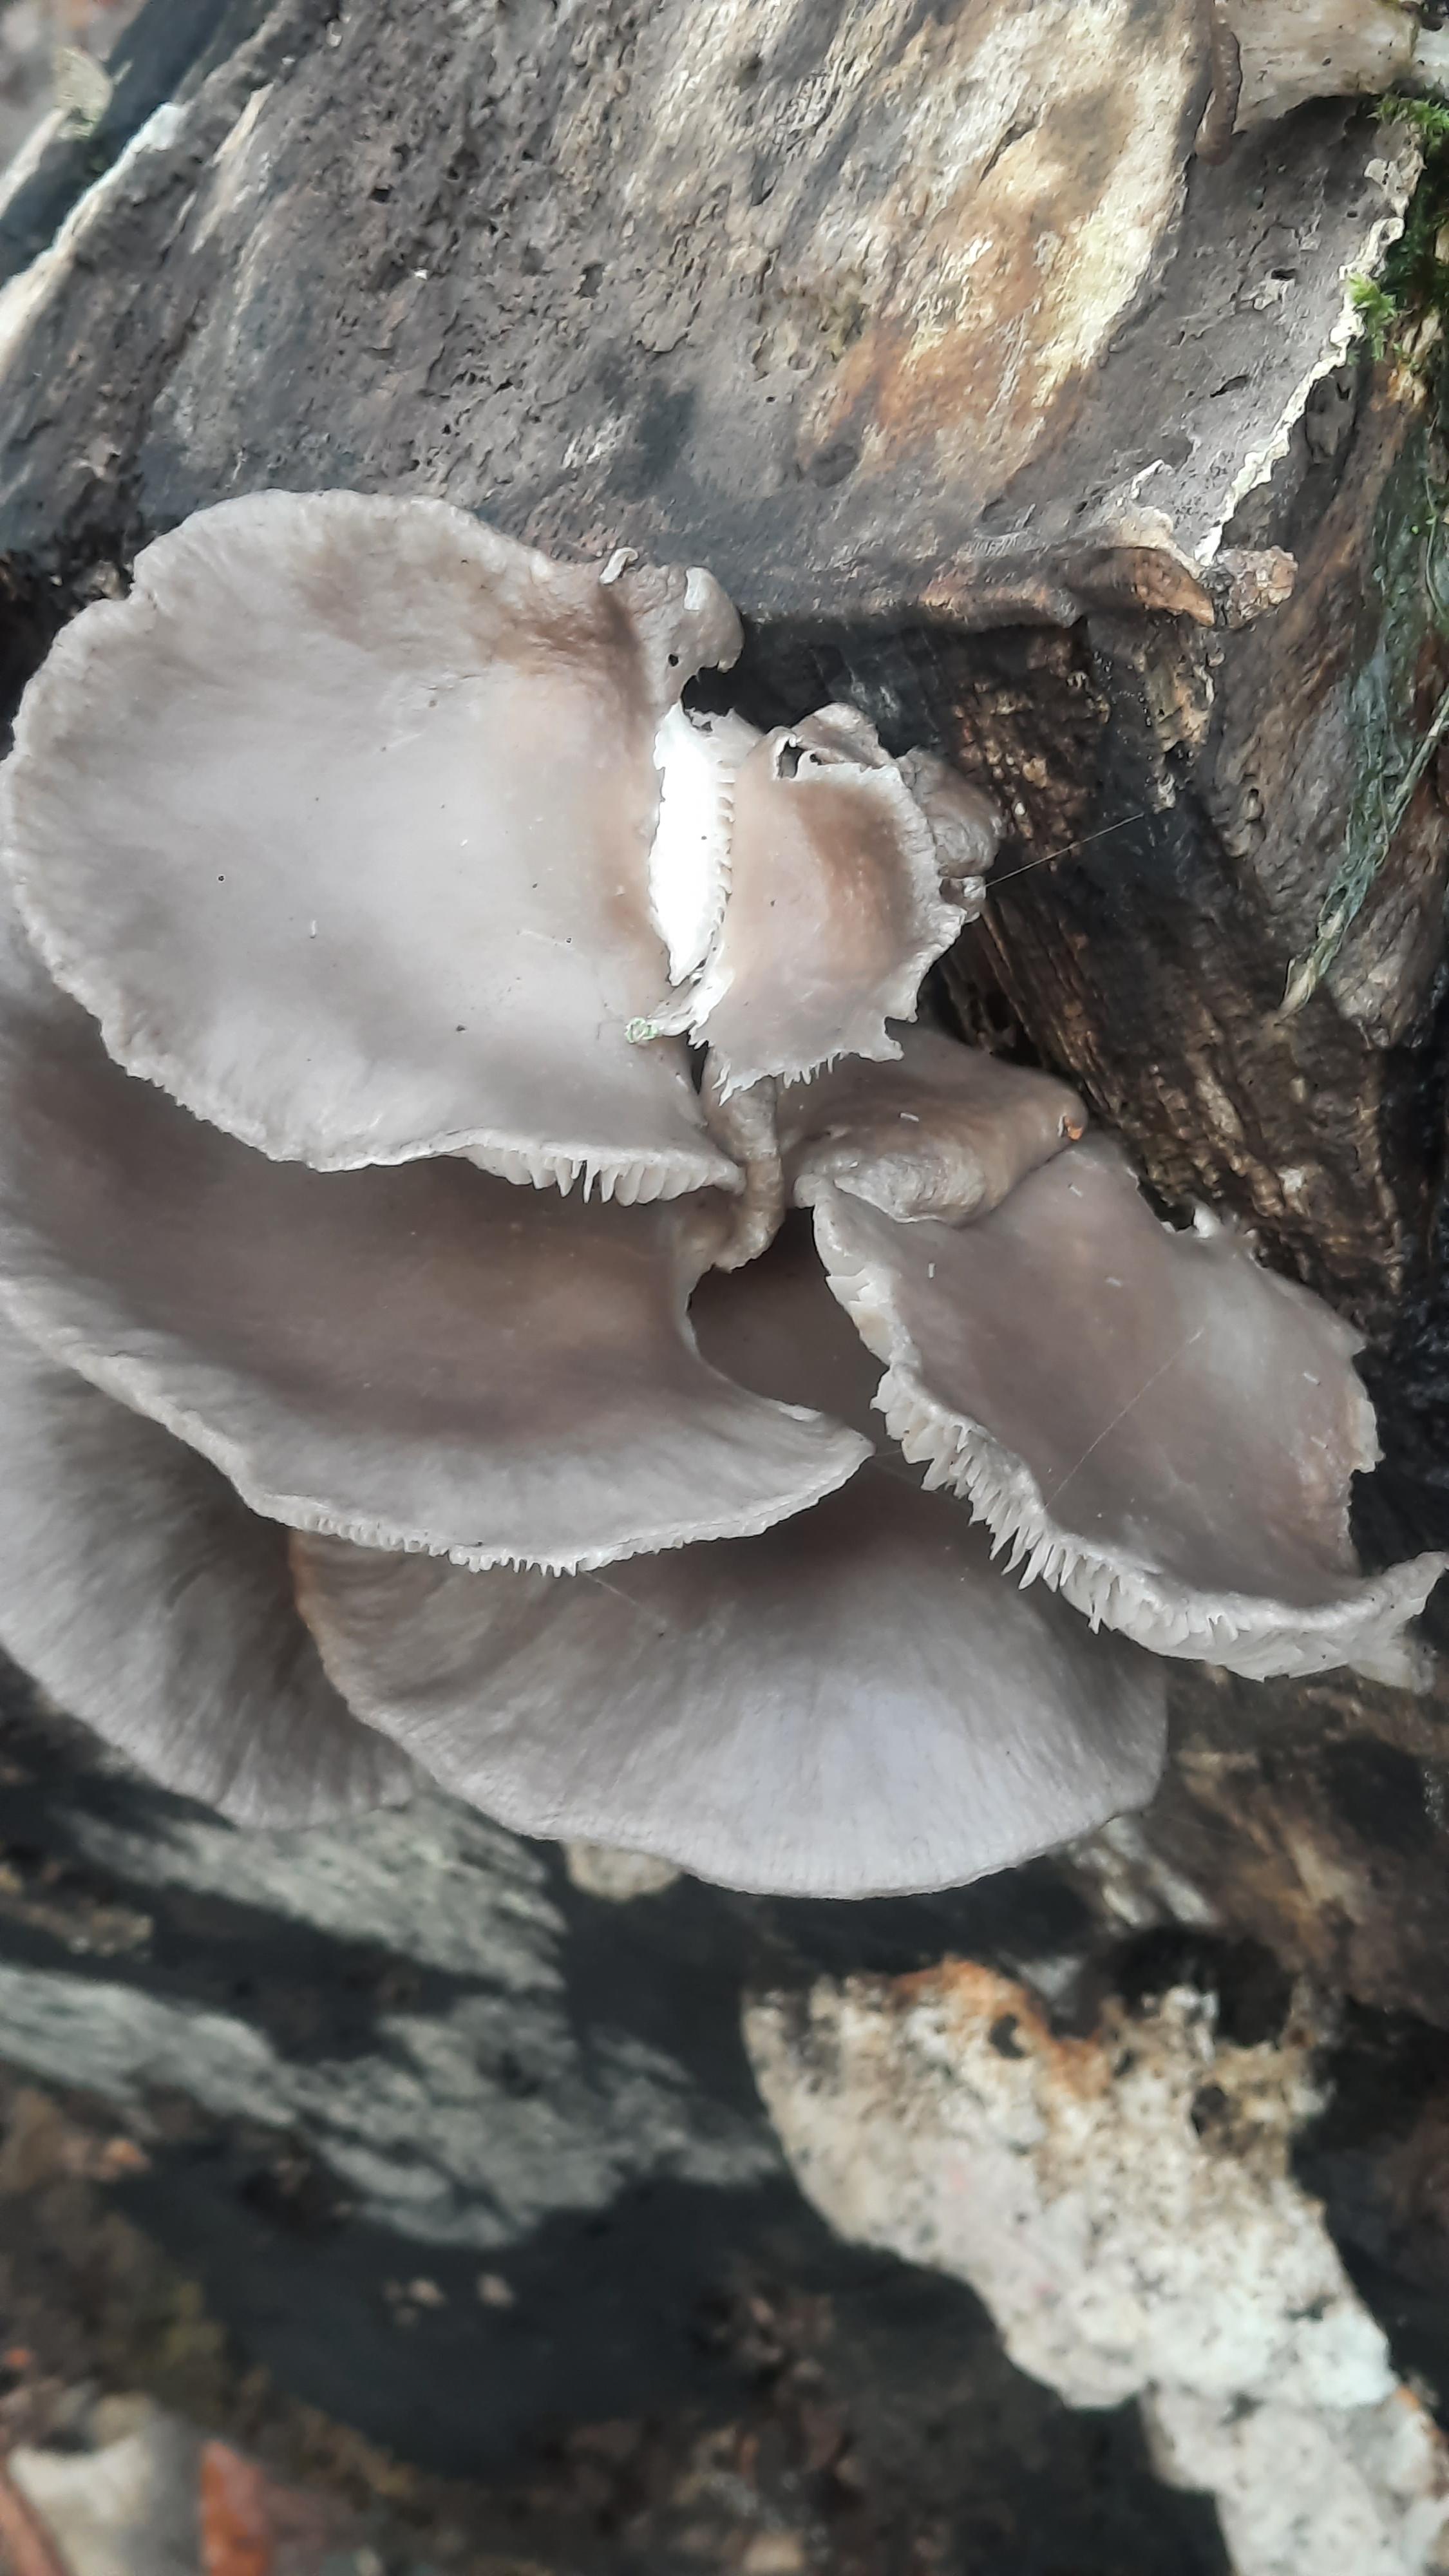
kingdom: Fungi
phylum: Basidiomycota
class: Agaricomycetes
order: Agaricales
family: Pleurotaceae
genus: Pleurotus
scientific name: Pleurotus ostreatus
